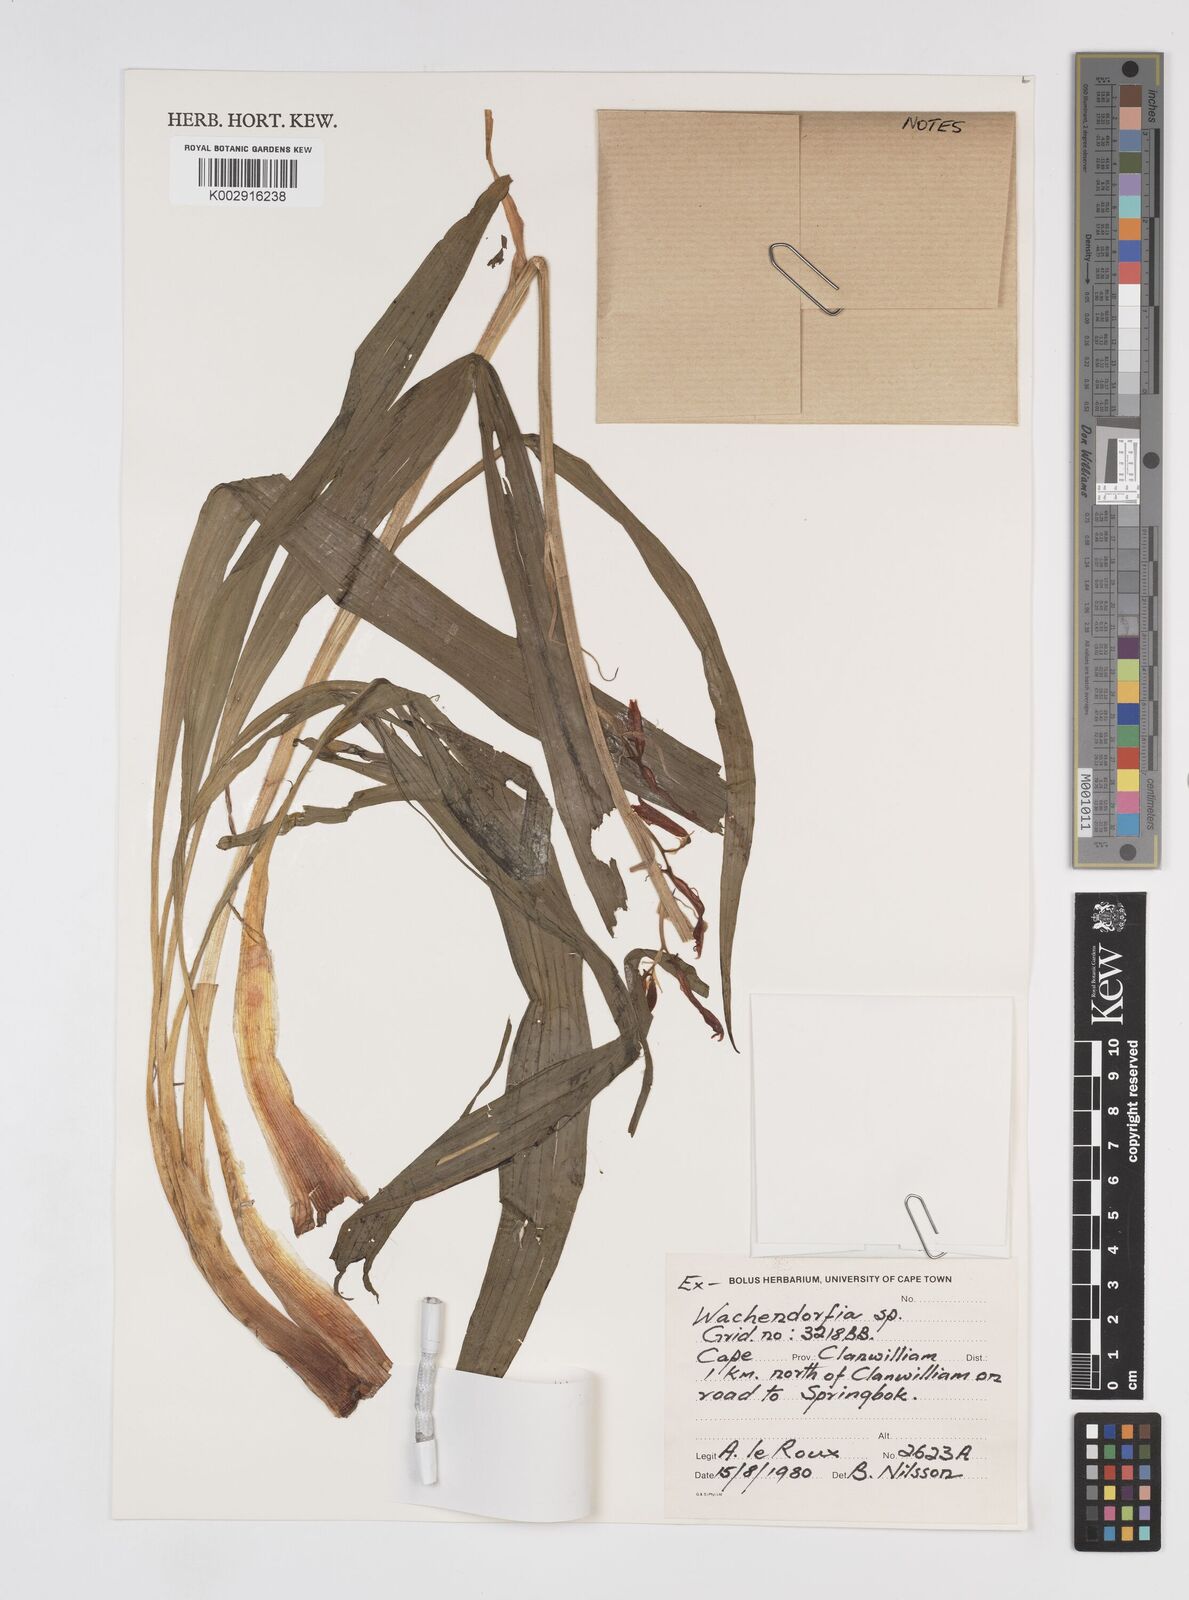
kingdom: Plantae
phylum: Tracheophyta
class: Liliopsida
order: Commelinales
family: Haemodoraceae
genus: Wachendorfia
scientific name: Wachendorfia paniculata
